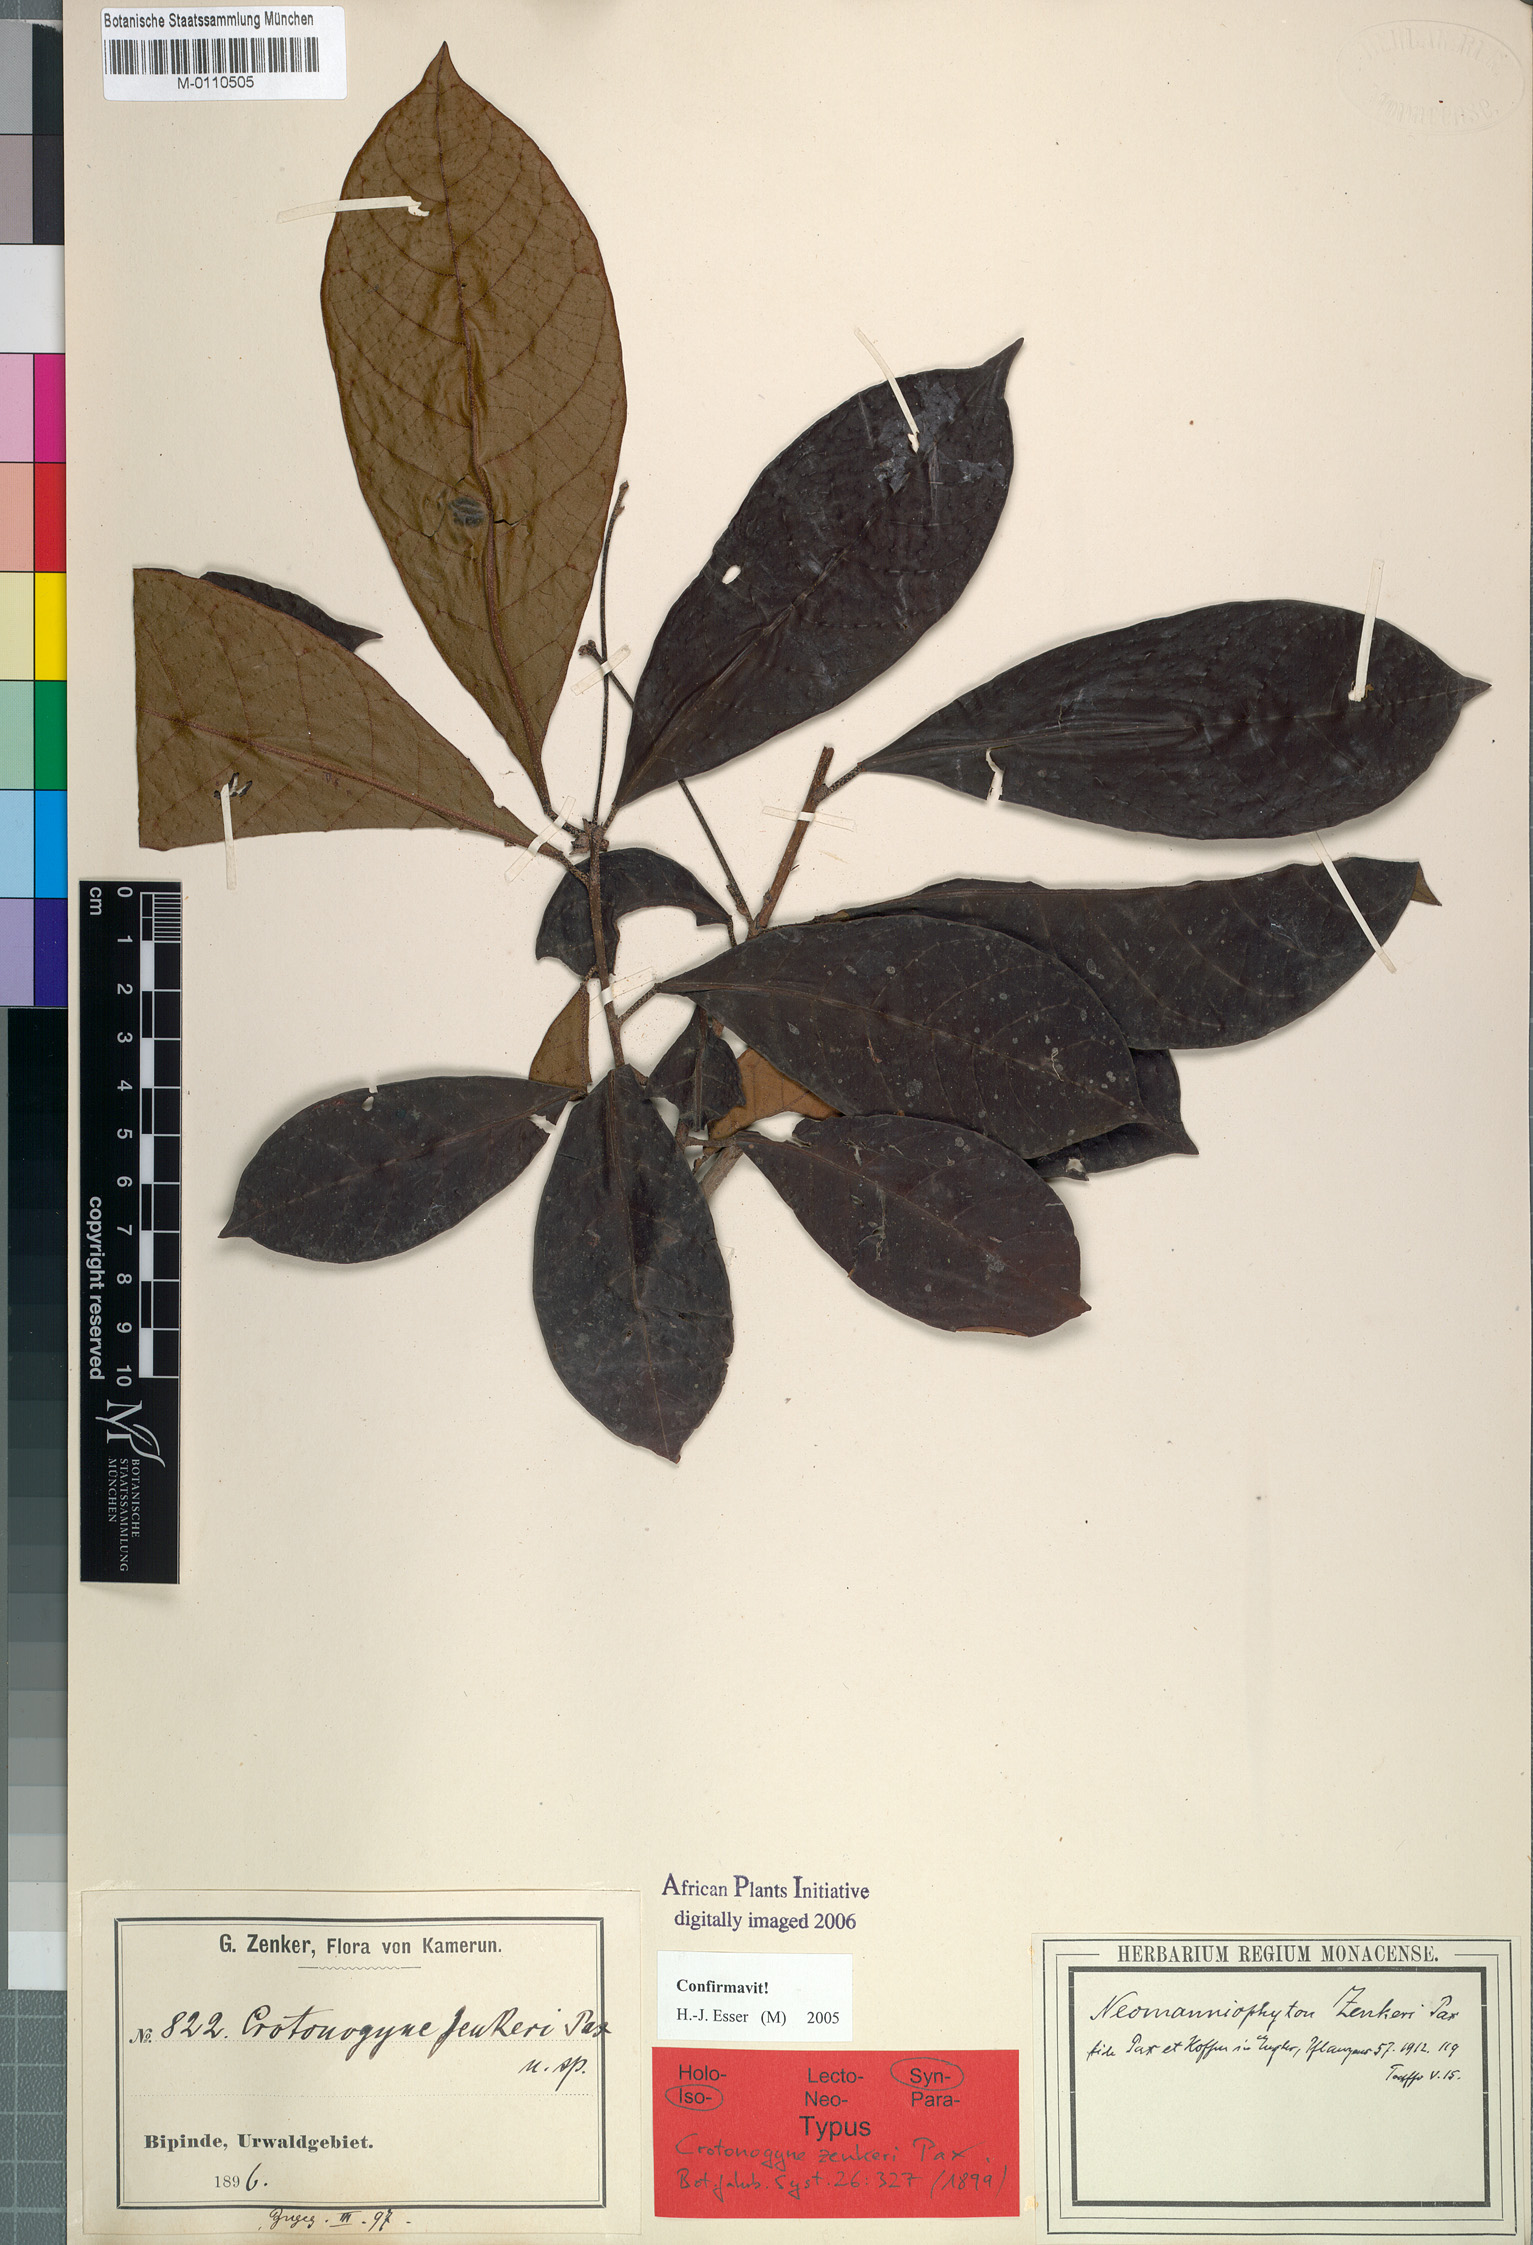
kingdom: Plantae
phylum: Tracheophyta
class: Magnoliopsida
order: Malpighiales
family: Euphorbiaceae
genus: Crotonogyne
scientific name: Crotonogyne zenkeri
